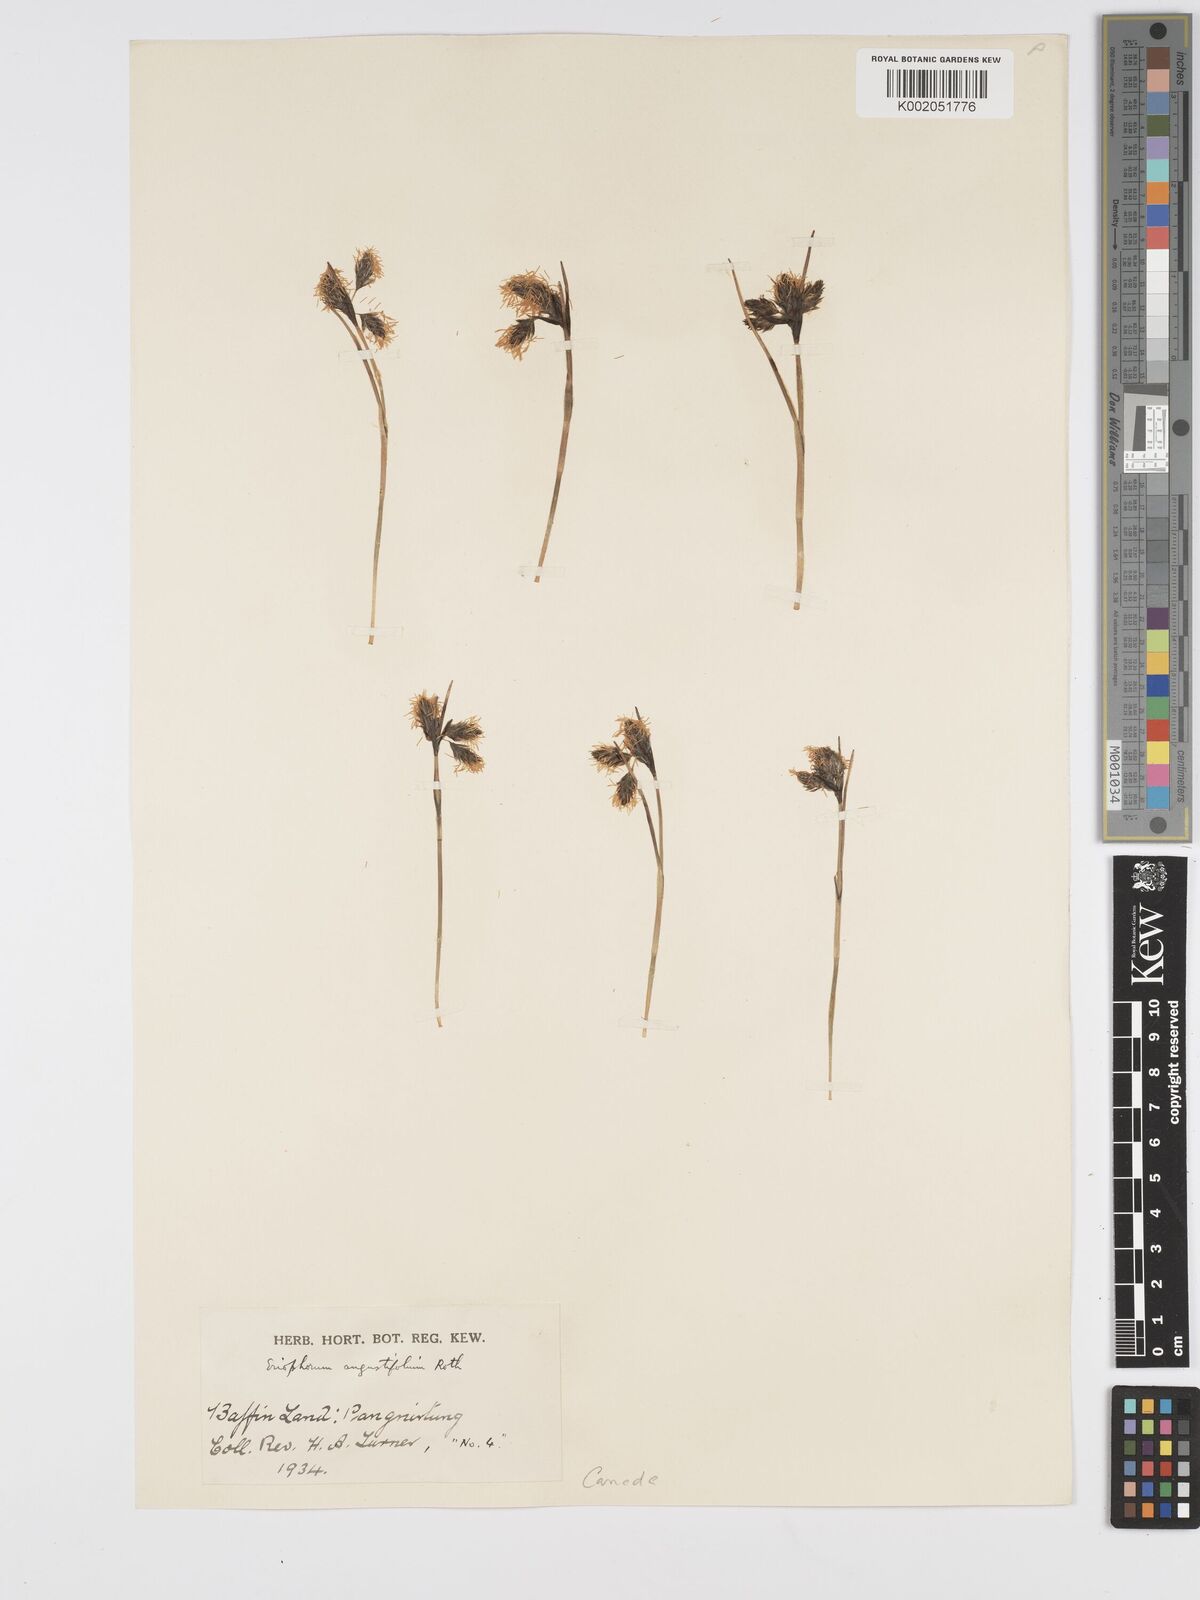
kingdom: Plantae
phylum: Tracheophyta
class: Liliopsida
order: Poales
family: Cyperaceae
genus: Eriophorum
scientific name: Eriophorum angustifolium
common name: Common cottongrass
